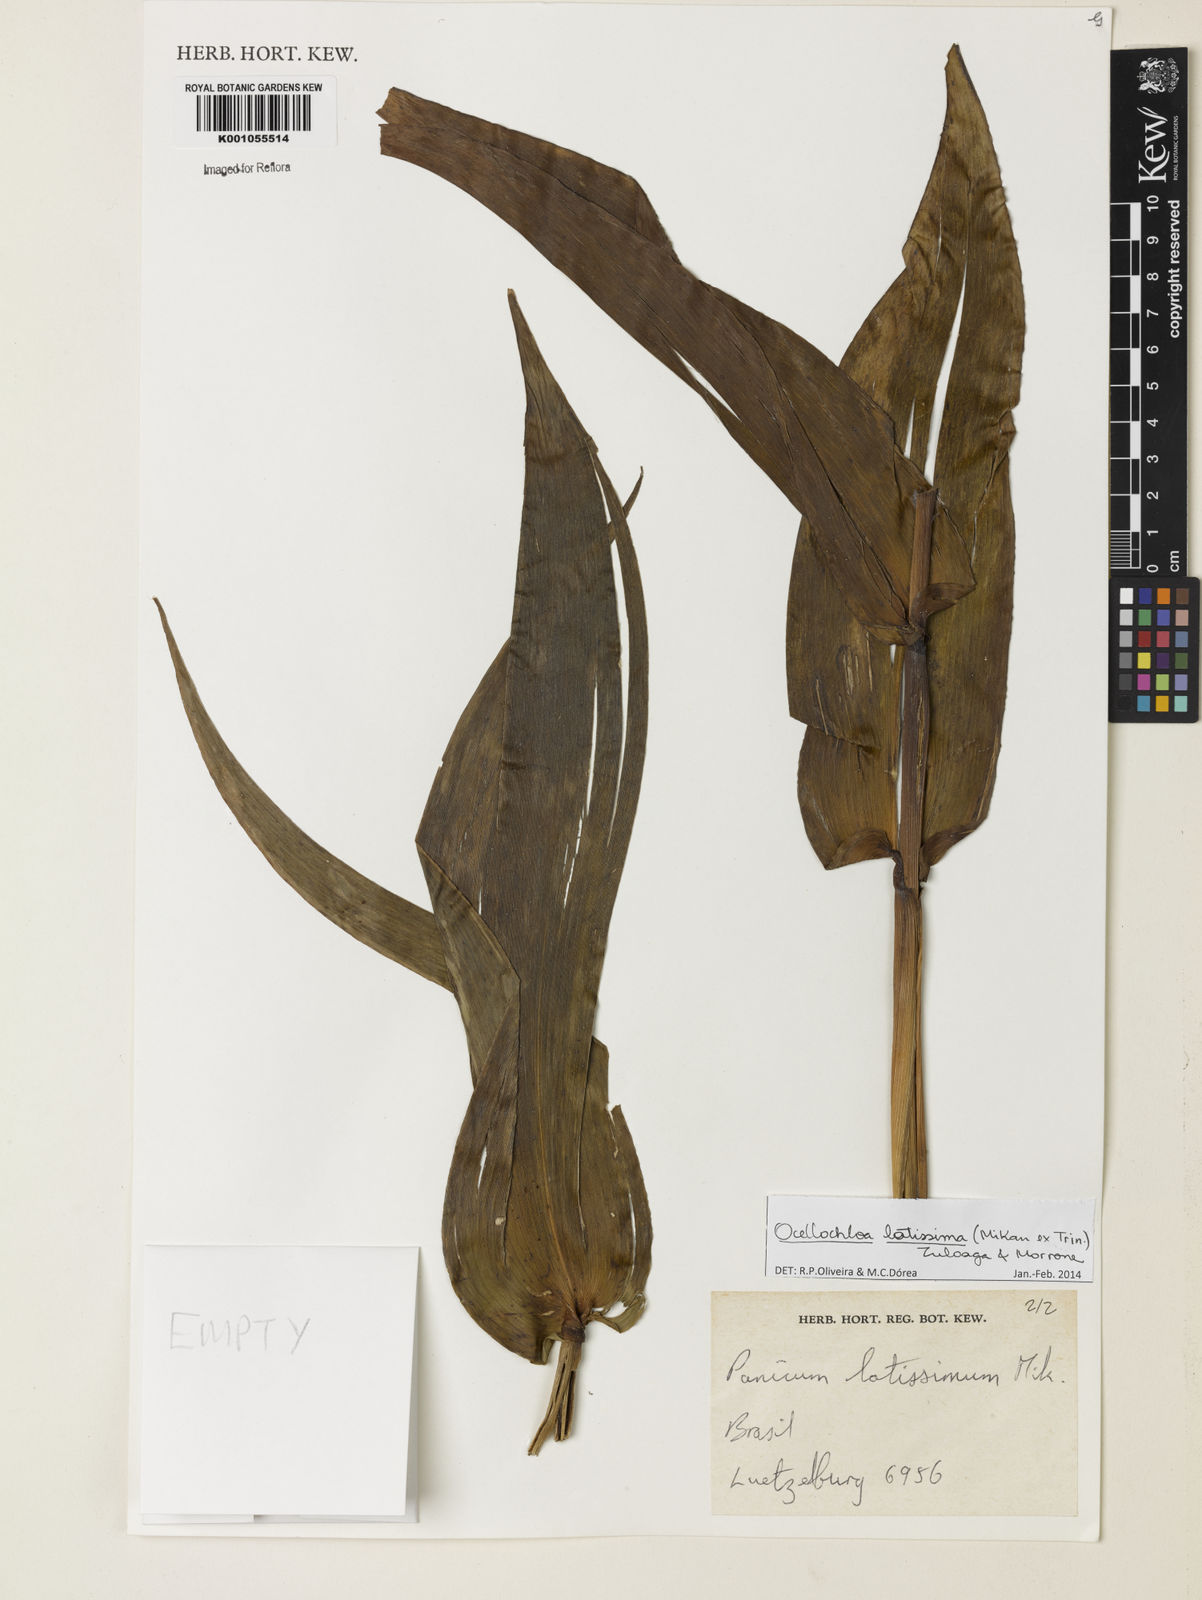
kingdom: Plantae
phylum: Tracheophyta
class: Liliopsida
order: Poales
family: Poaceae
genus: Ocellochloa
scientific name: Ocellochloa latissima
